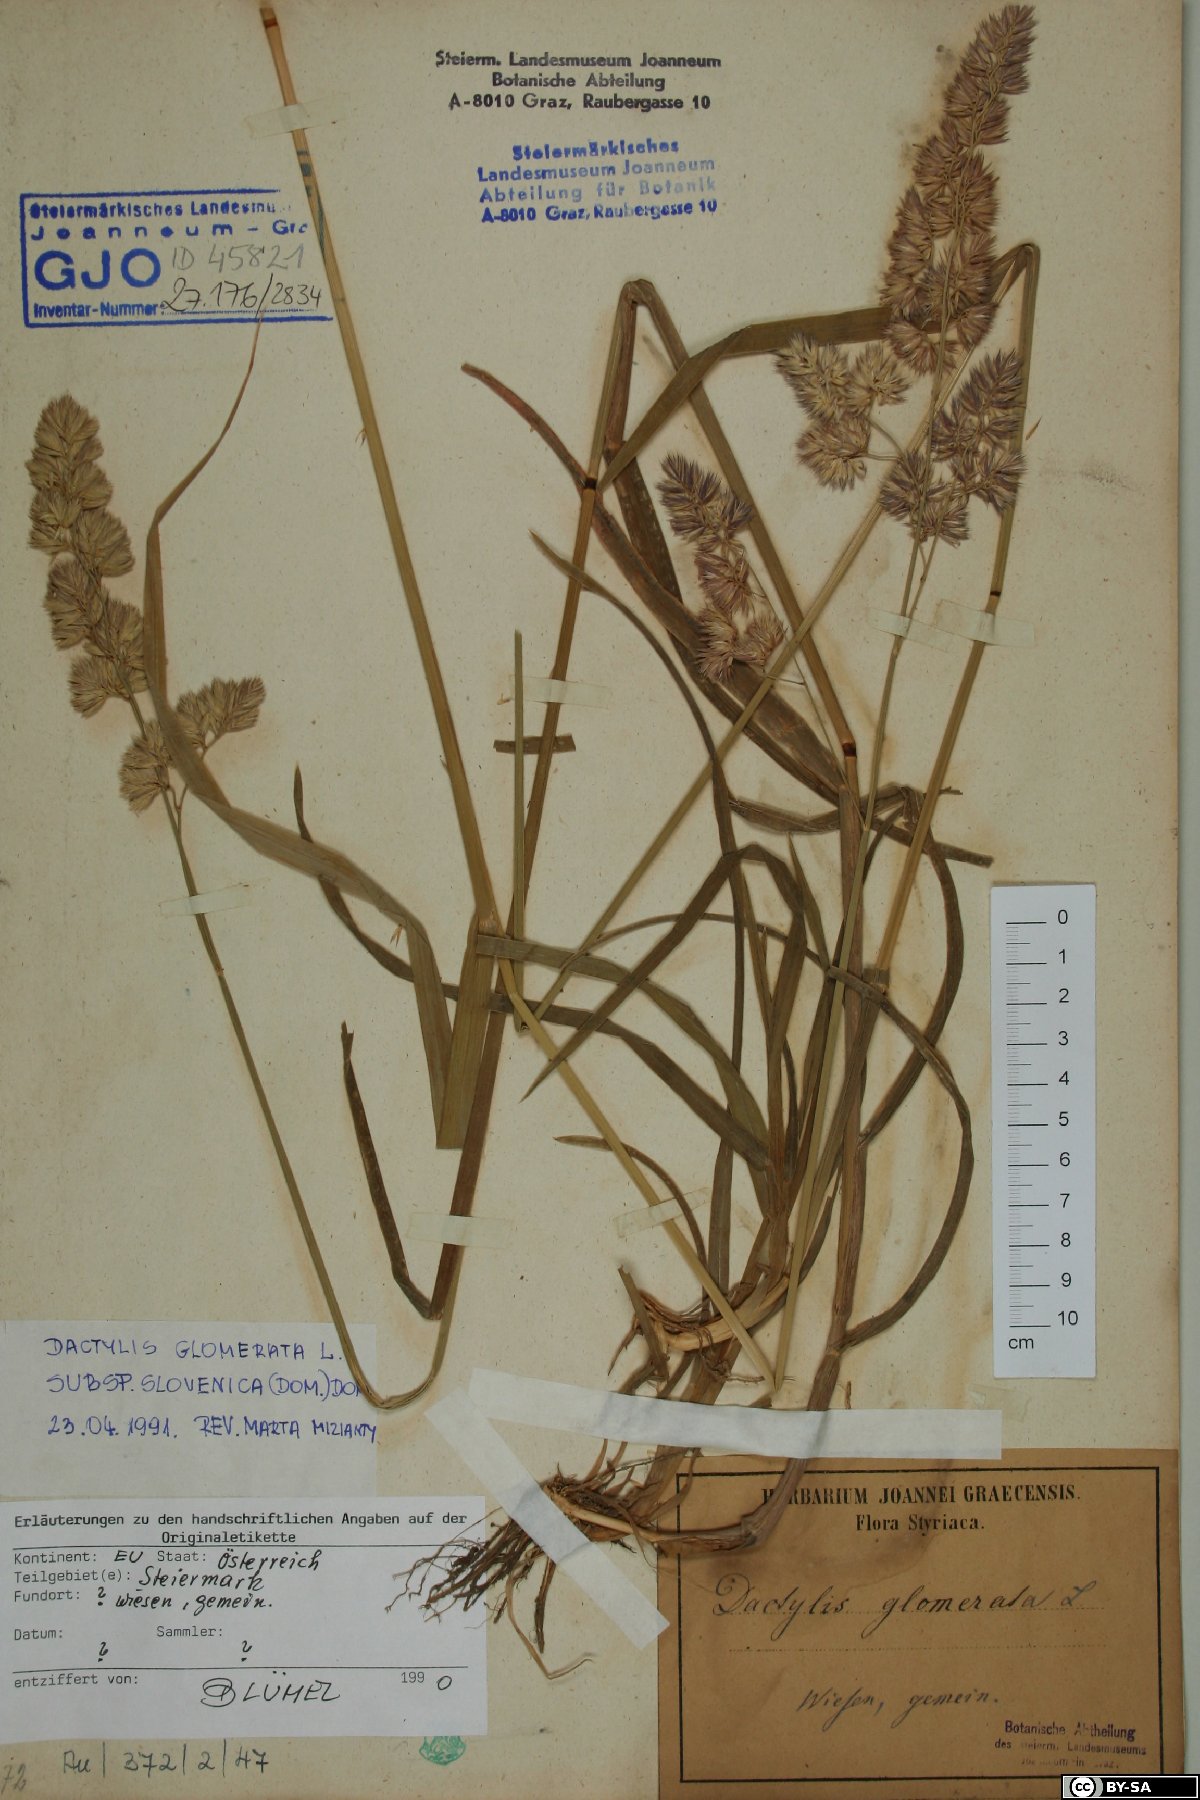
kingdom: Plantae
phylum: Tracheophyta
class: Liliopsida
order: Poales
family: Poaceae
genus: Dactylis
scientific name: Dactylis glomerata
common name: Orchardgrass
